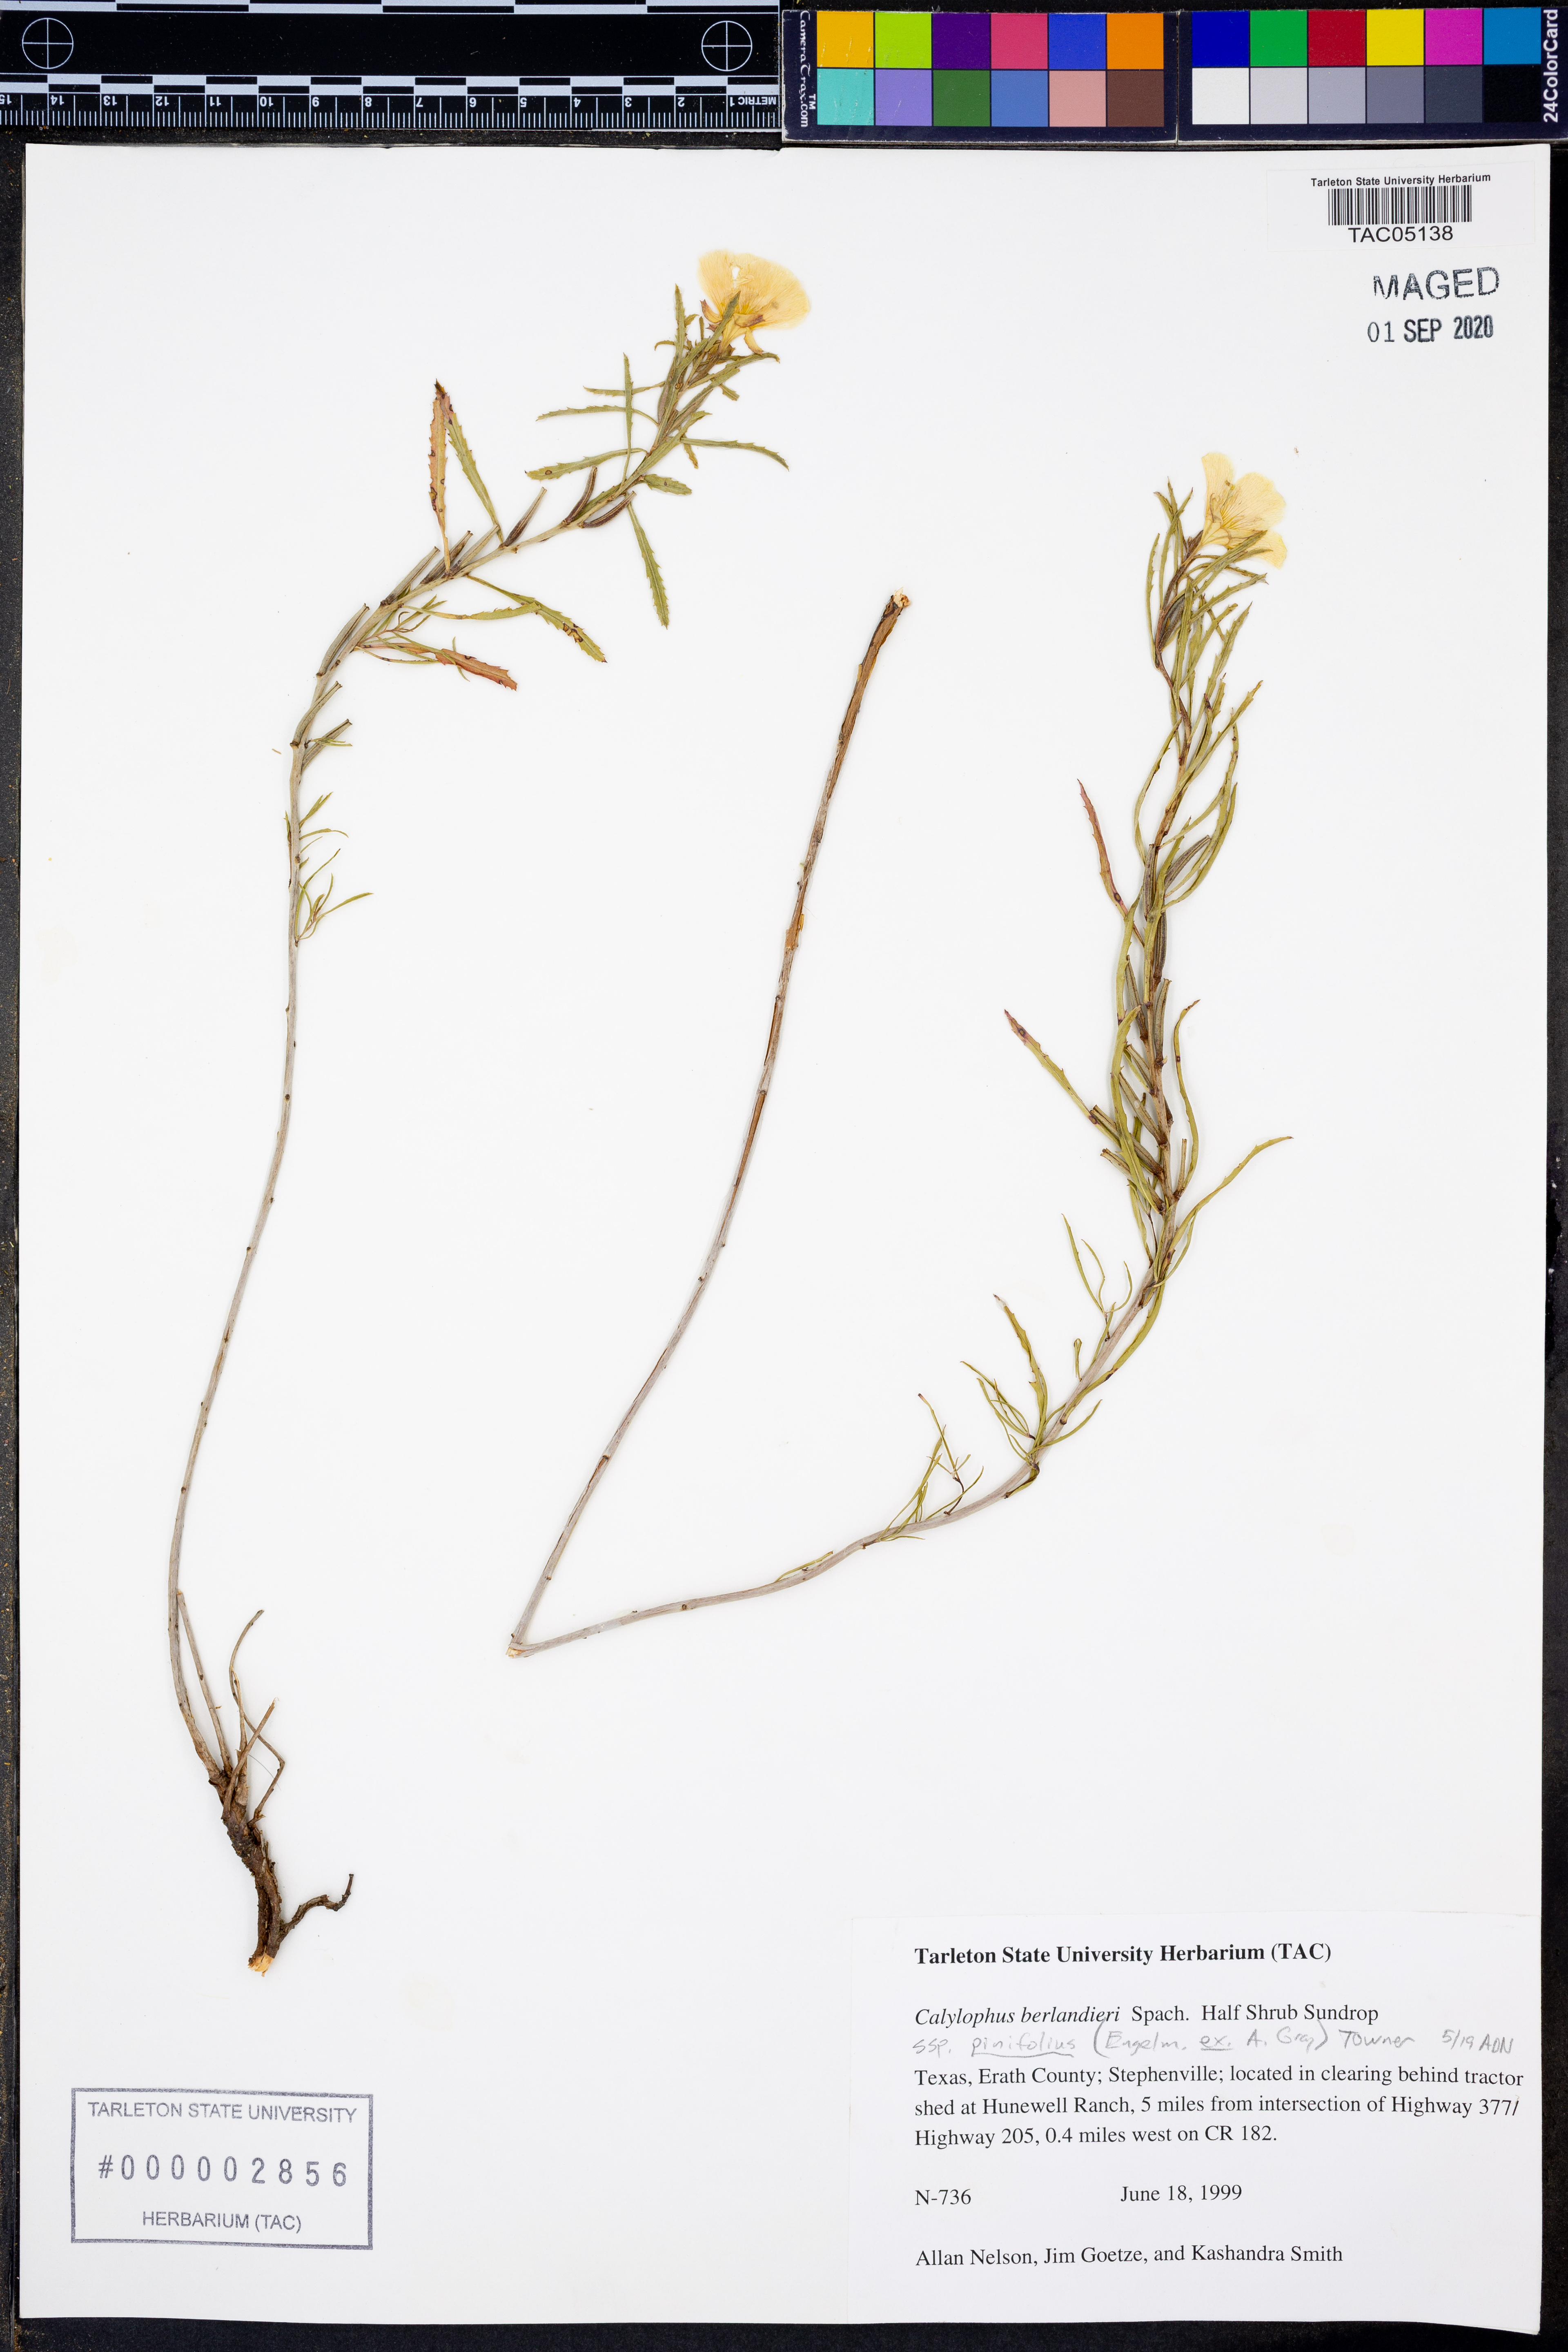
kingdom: Plantae
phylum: Tracheophyta
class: Magnoliopsida
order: Myrtales
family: Onagraceae
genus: Oenothera
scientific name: Oenothera capillifolia
